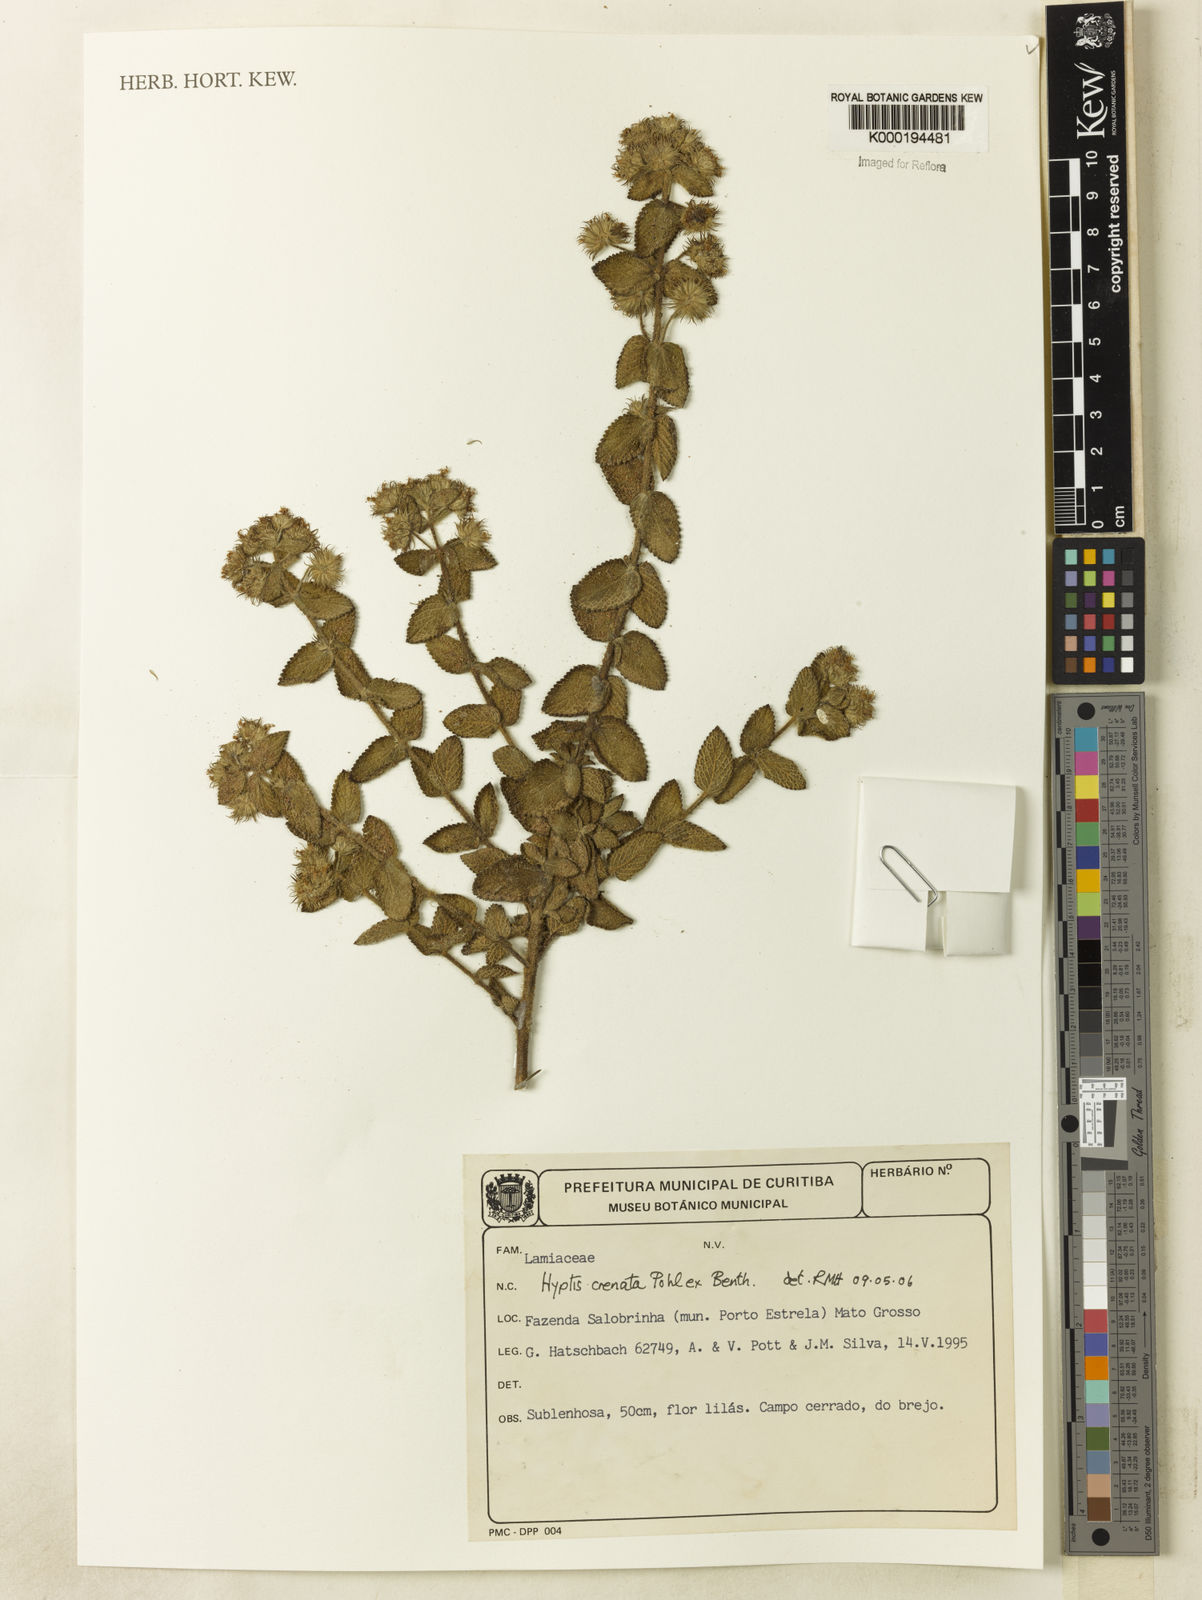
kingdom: Plantae
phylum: Tracheophyta
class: Magnoliopsida
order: Lamiales
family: Lamiaceae
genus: Hyptis
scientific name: Hyptis crenata
